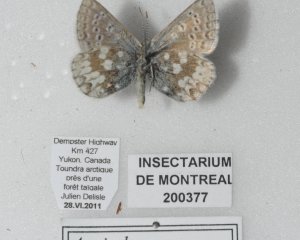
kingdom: Animalia
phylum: Arthropoda
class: Insecta
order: Lepidoptera
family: Lycaenidae
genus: Agriades
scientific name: Agriades glandon
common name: Arctic Blue
